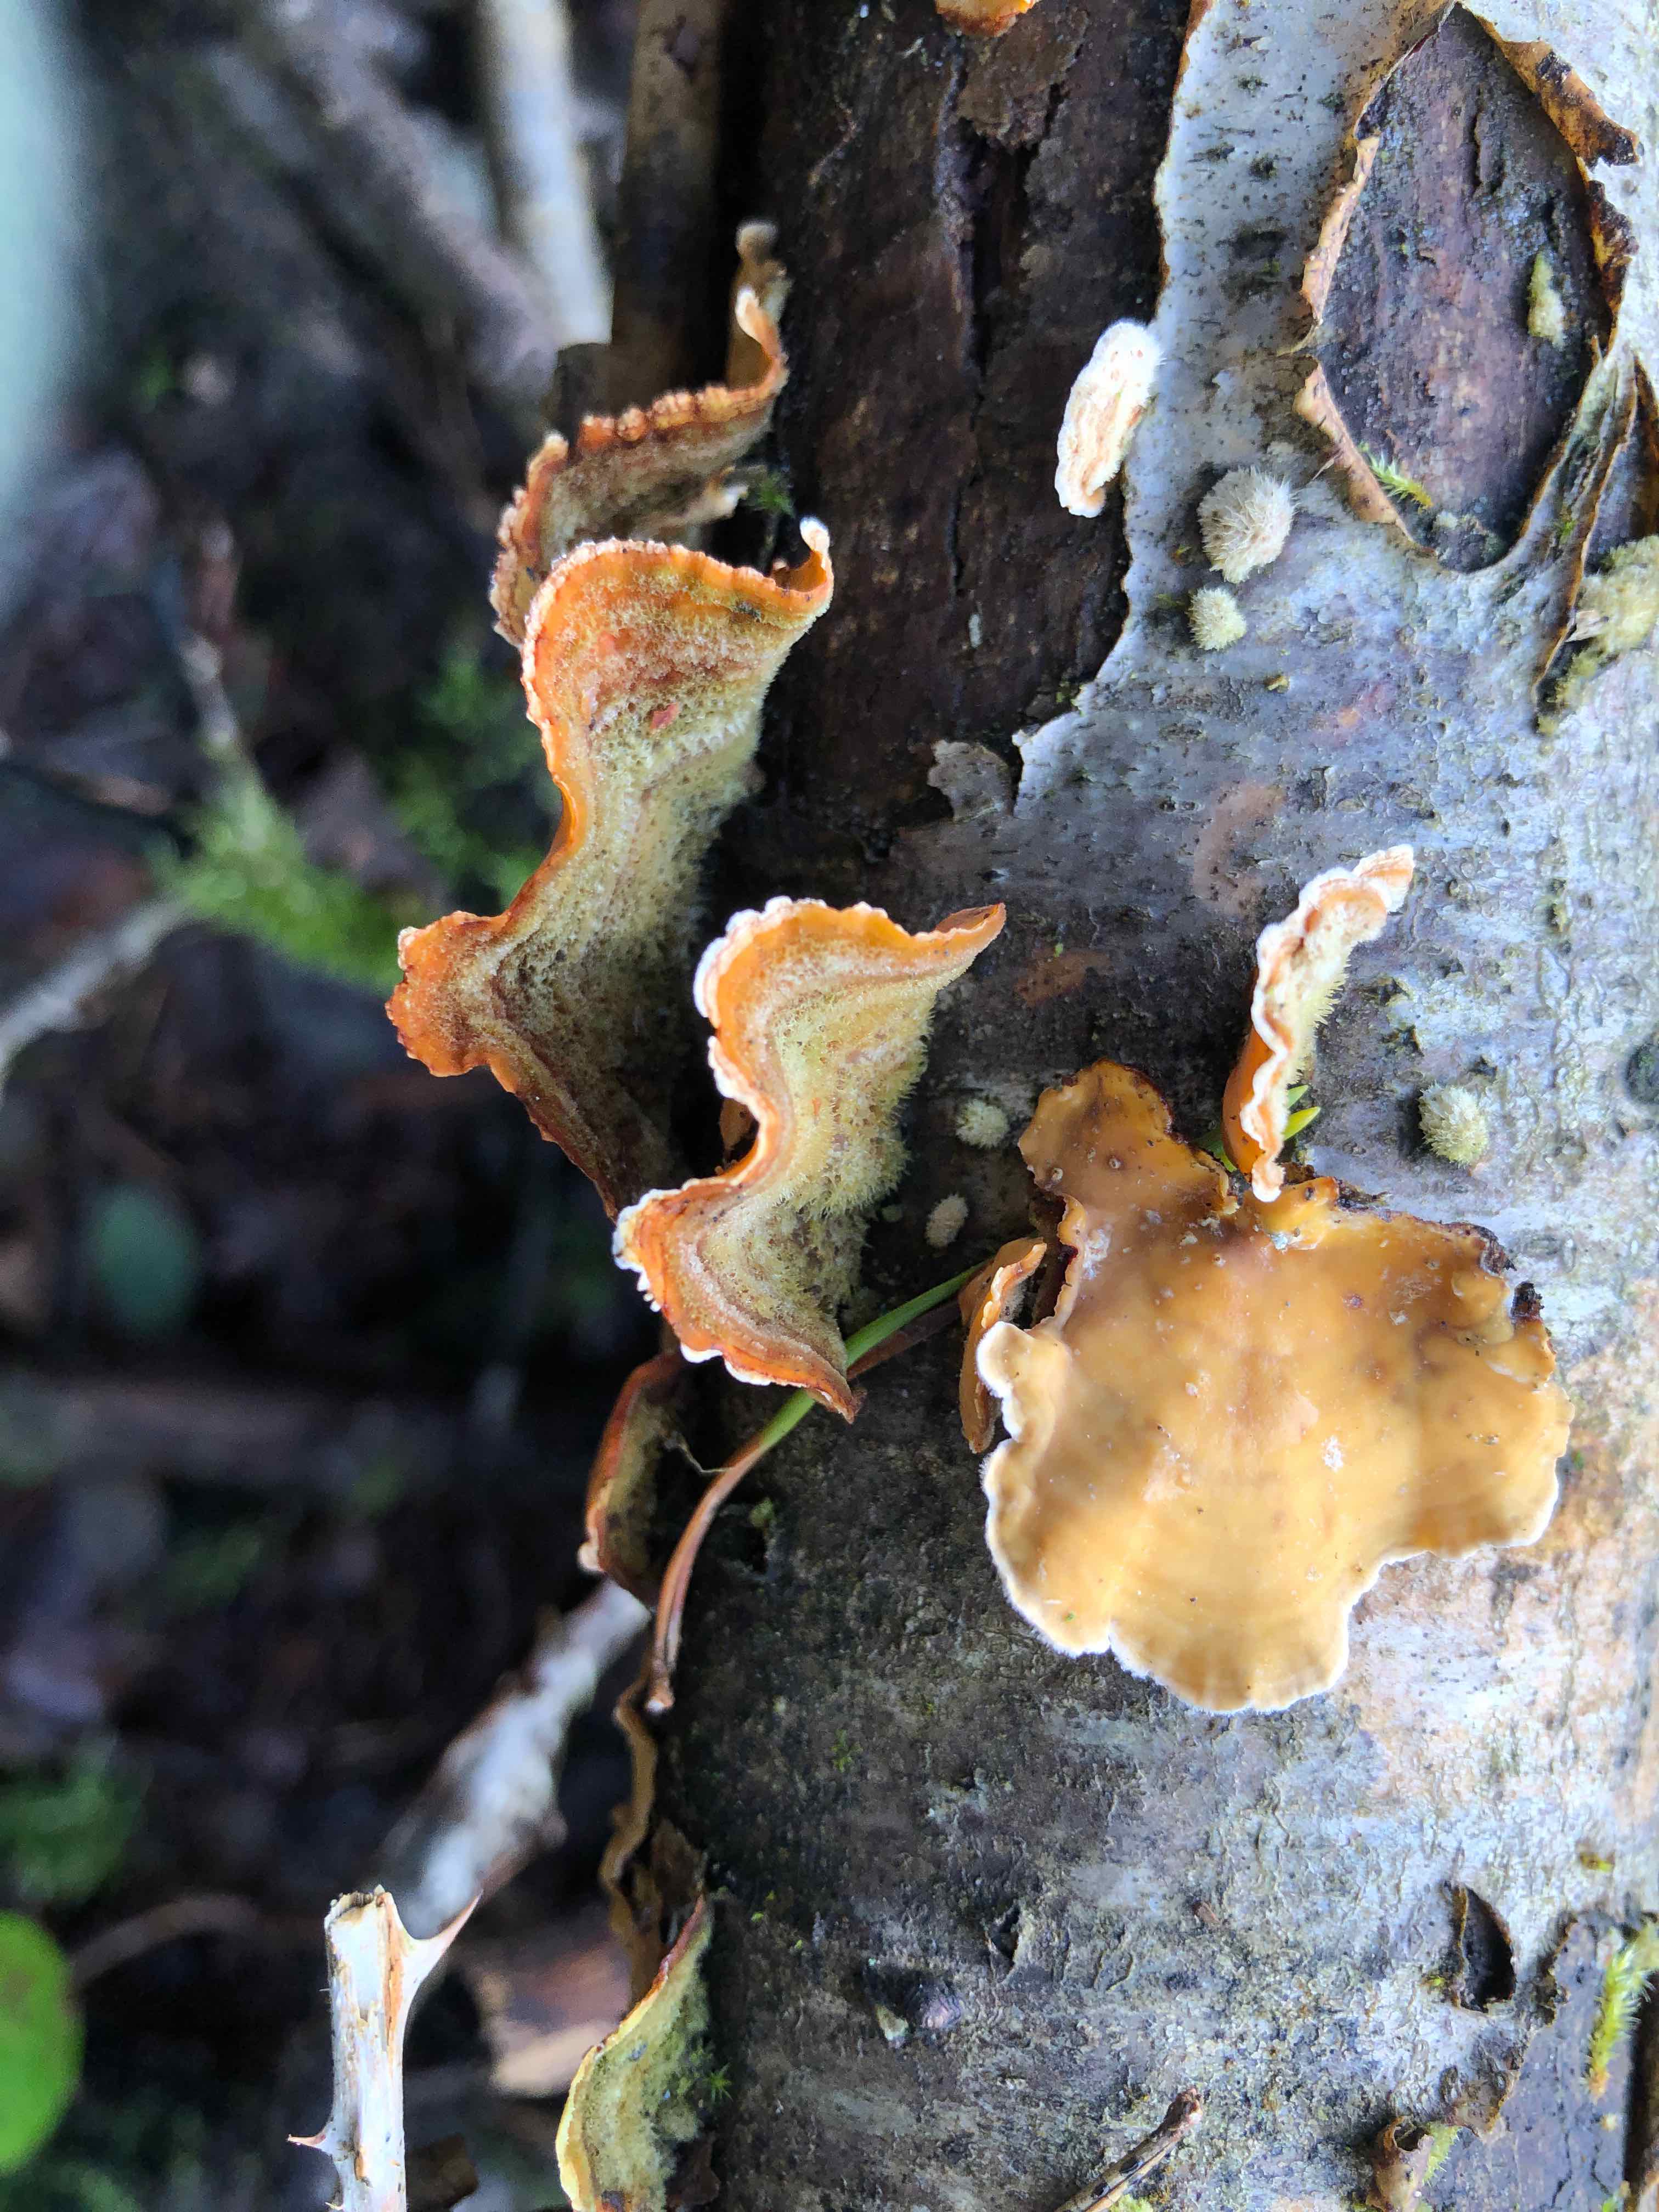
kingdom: Fungi
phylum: Basidiomycota
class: Agaricomycetes
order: Russulales
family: Stereaceae
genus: Stereum
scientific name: Stereum subtomentosum
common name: smuk lædersvamp
